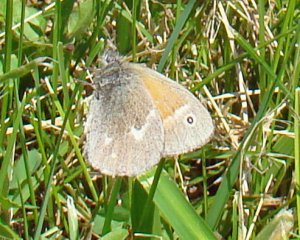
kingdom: Animalia
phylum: Arthropoda
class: Insecta
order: Lepidoptera
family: Nymphalidae
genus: Coenonympha
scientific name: Coenonympha tullia
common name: Large Heath
